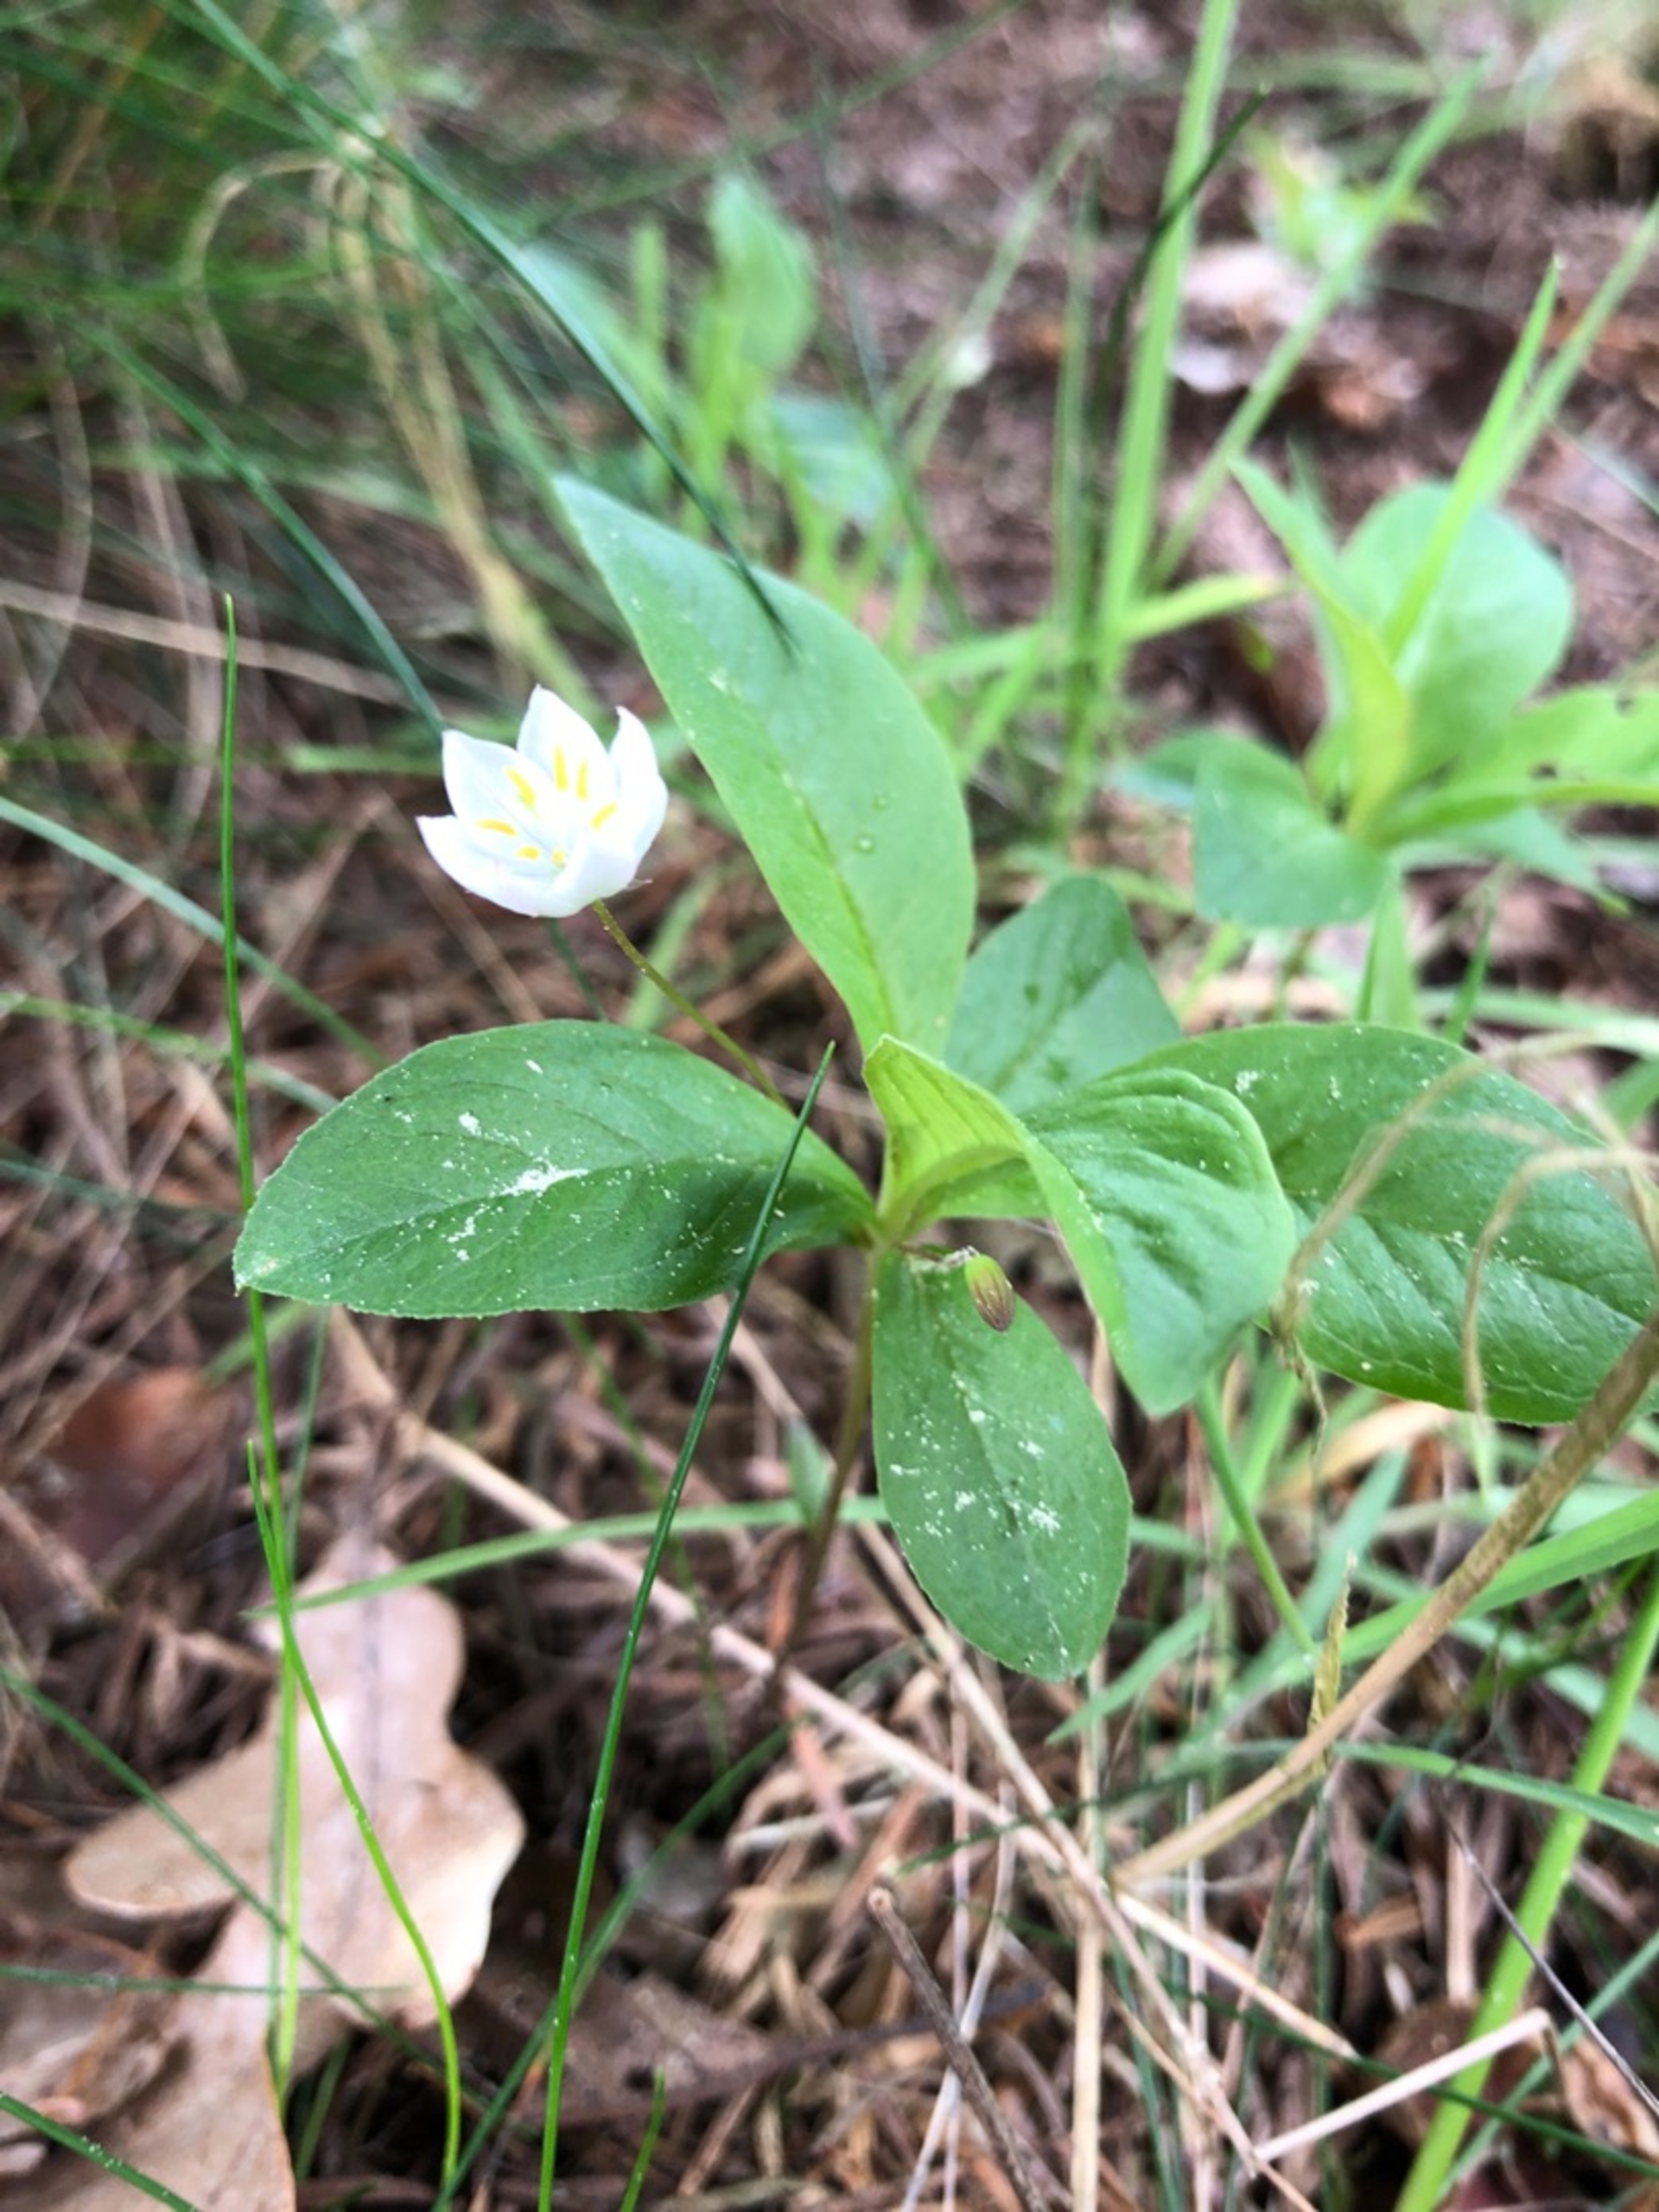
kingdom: Plantae
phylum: Tracheophyta
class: Magnoliopsida
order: Ericales
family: Primulaceae
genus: Lysimachia
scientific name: Lysimachia europaea
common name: Skovstjerne
